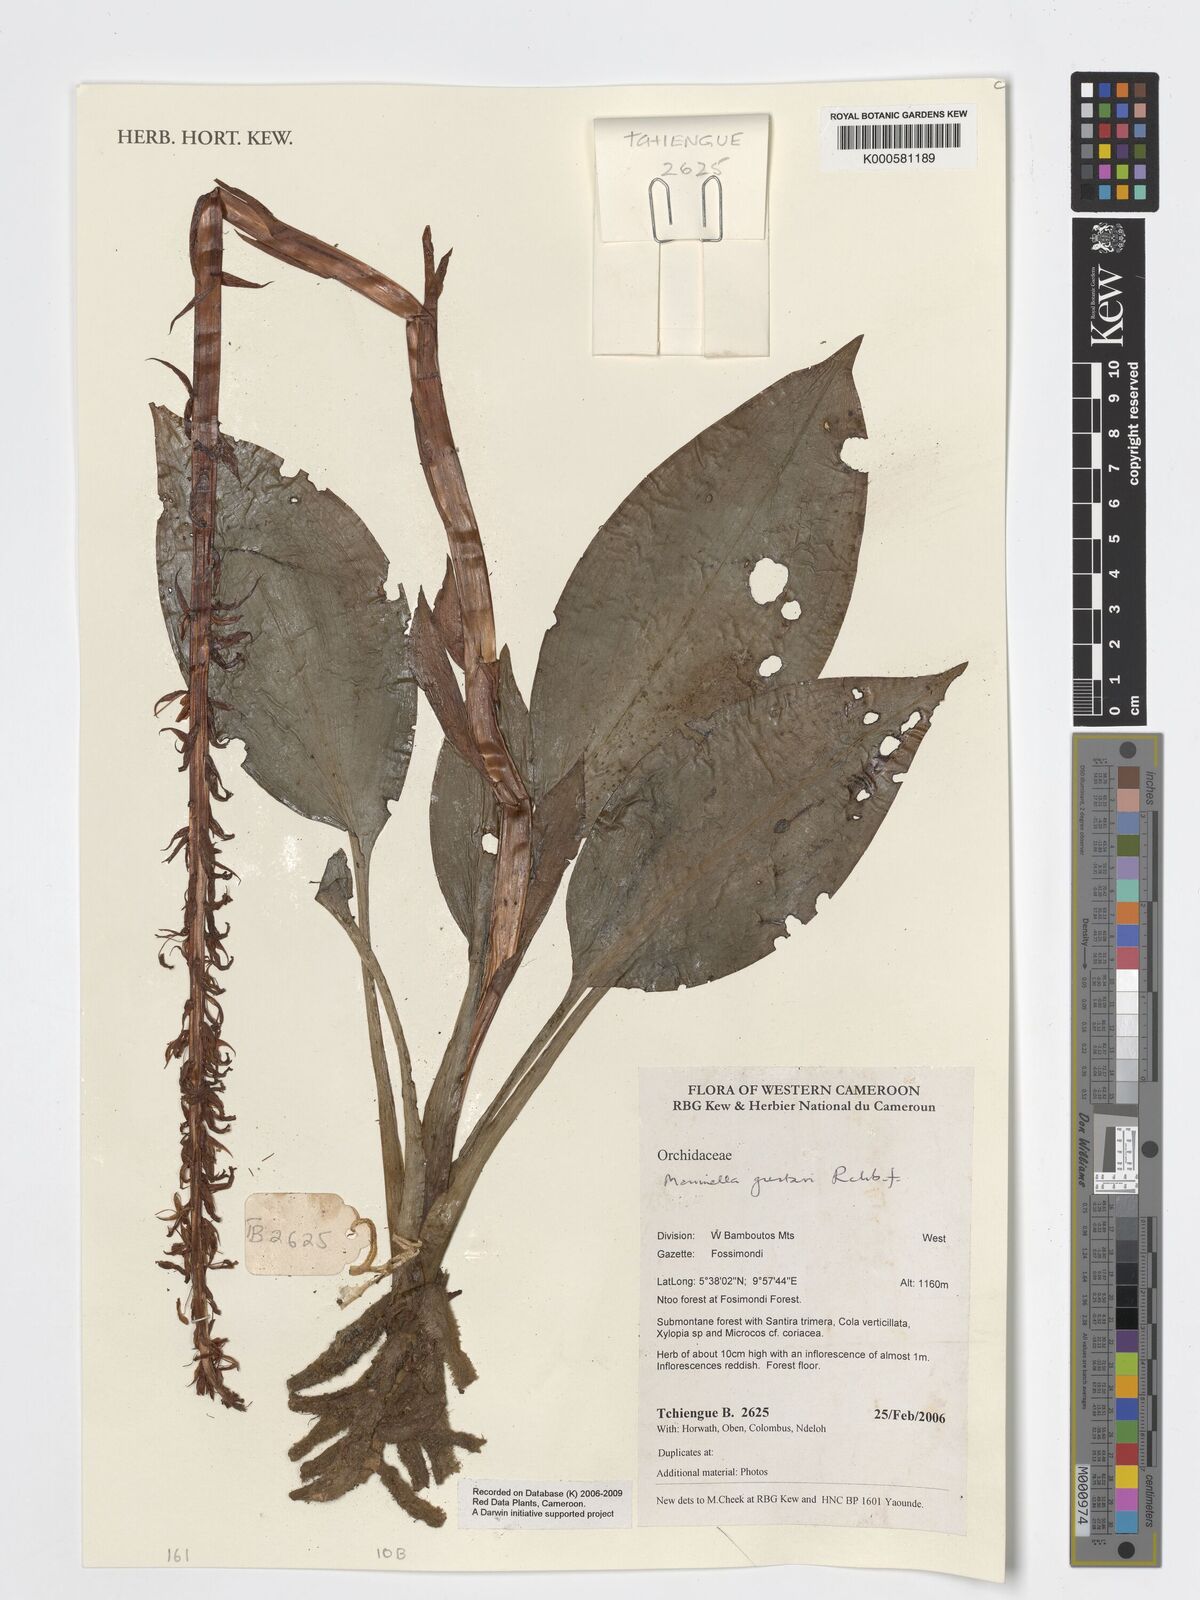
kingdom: Plantae
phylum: Tracheophyta
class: Liliopsida
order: Asparagales
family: Orchidaceae
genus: Manniella
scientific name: Manniella gustavi
